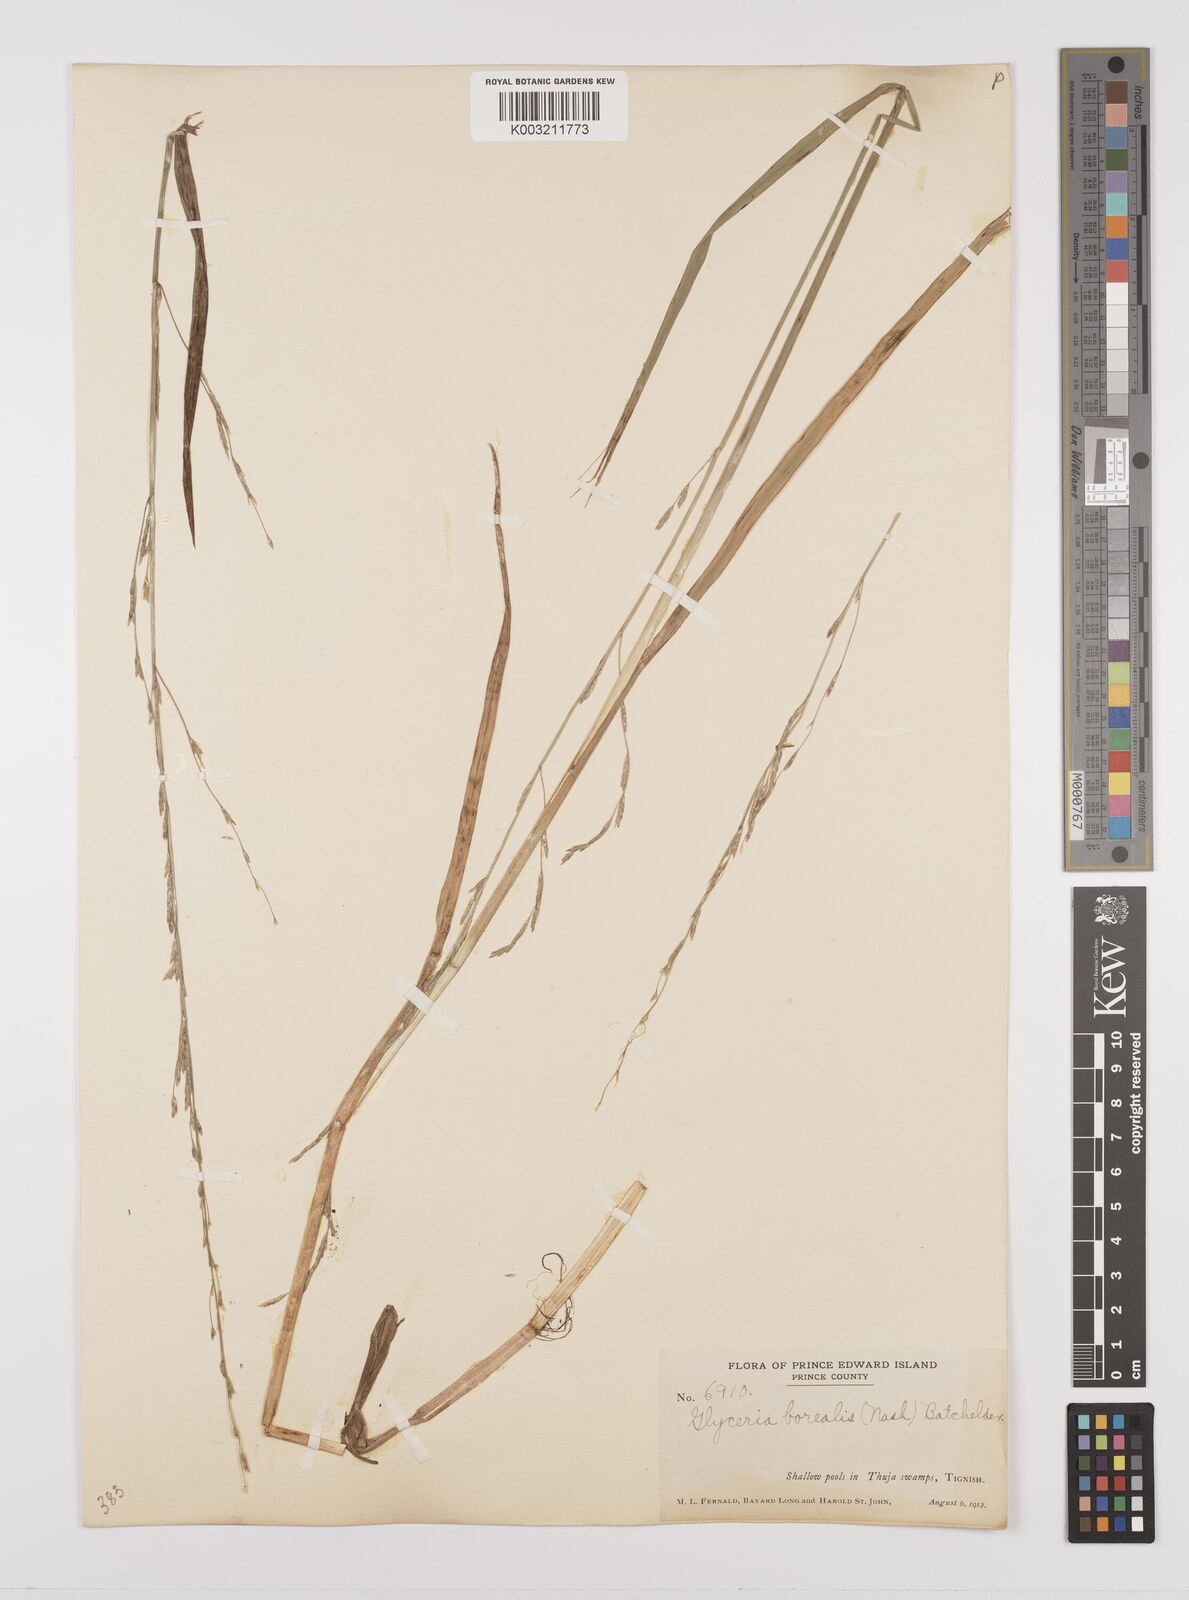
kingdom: Plantae
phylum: Tracheophyta
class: Liliopsida
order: Poales
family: Poaceae
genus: Glyceria
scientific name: Glyceria borealis
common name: Boreal glyceria
